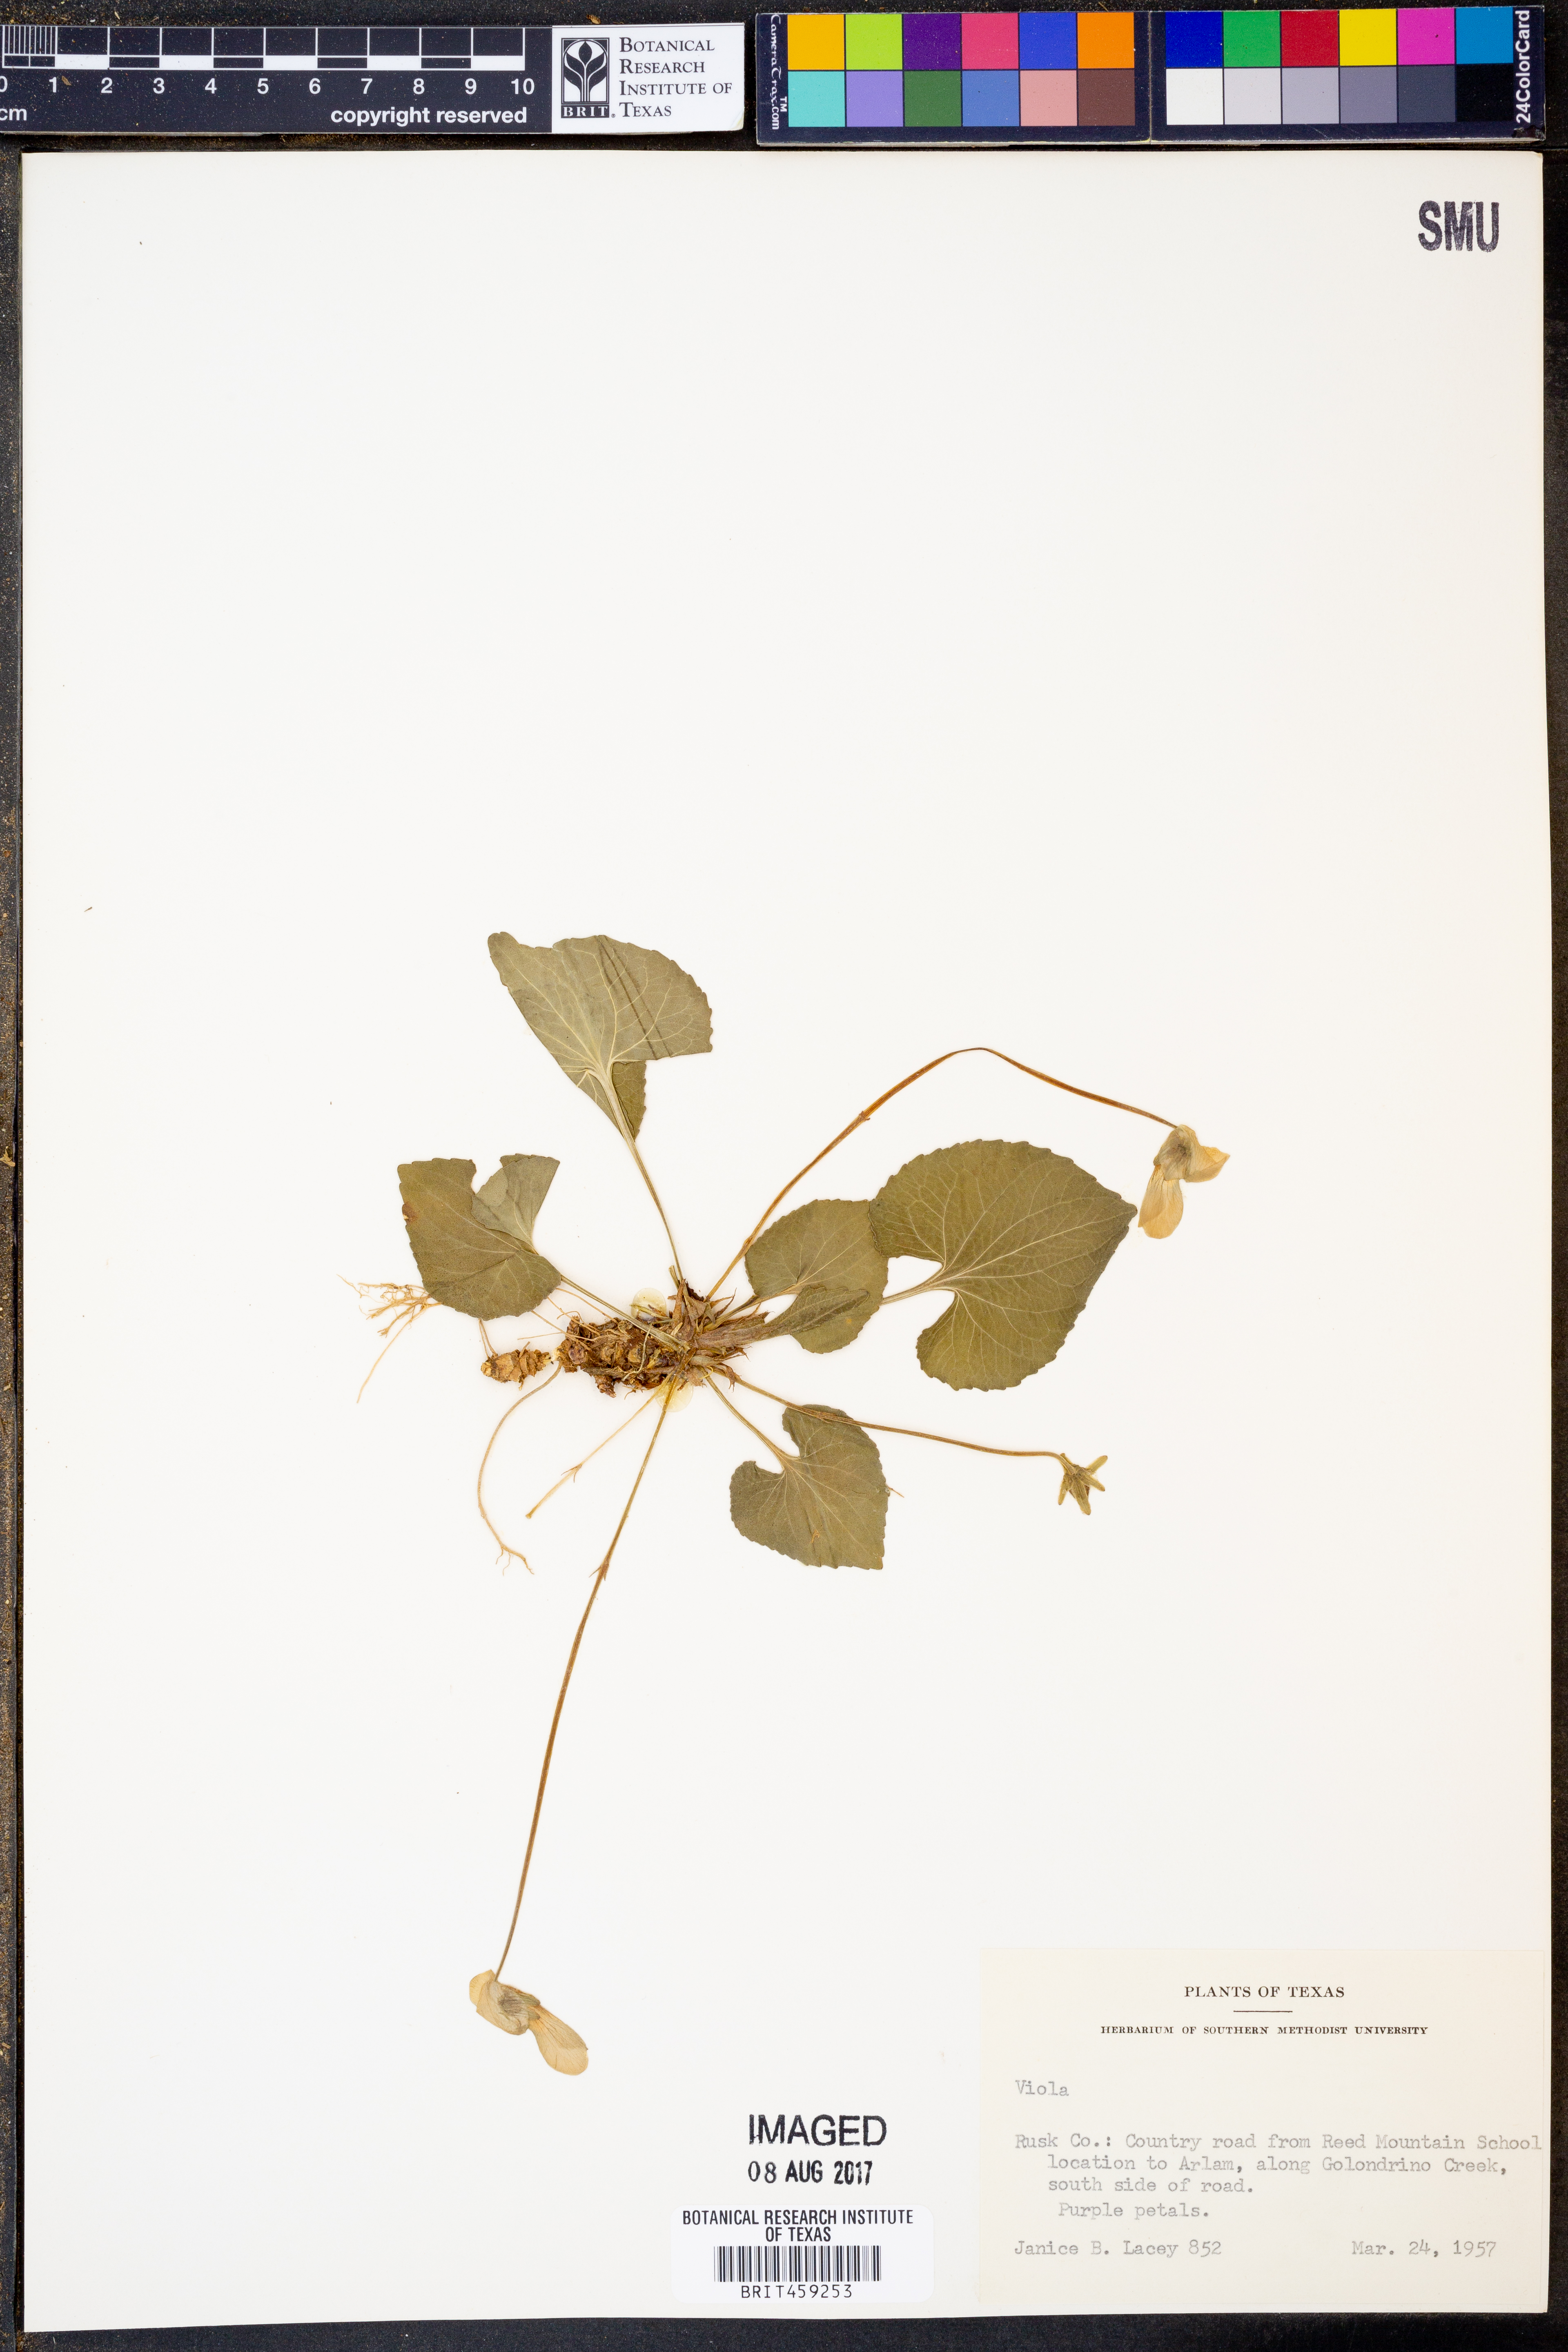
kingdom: Plantae
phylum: Tracheophyta
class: Magnoliopsida
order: Malpighiales
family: Violaceae
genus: Viola
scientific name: Viola
